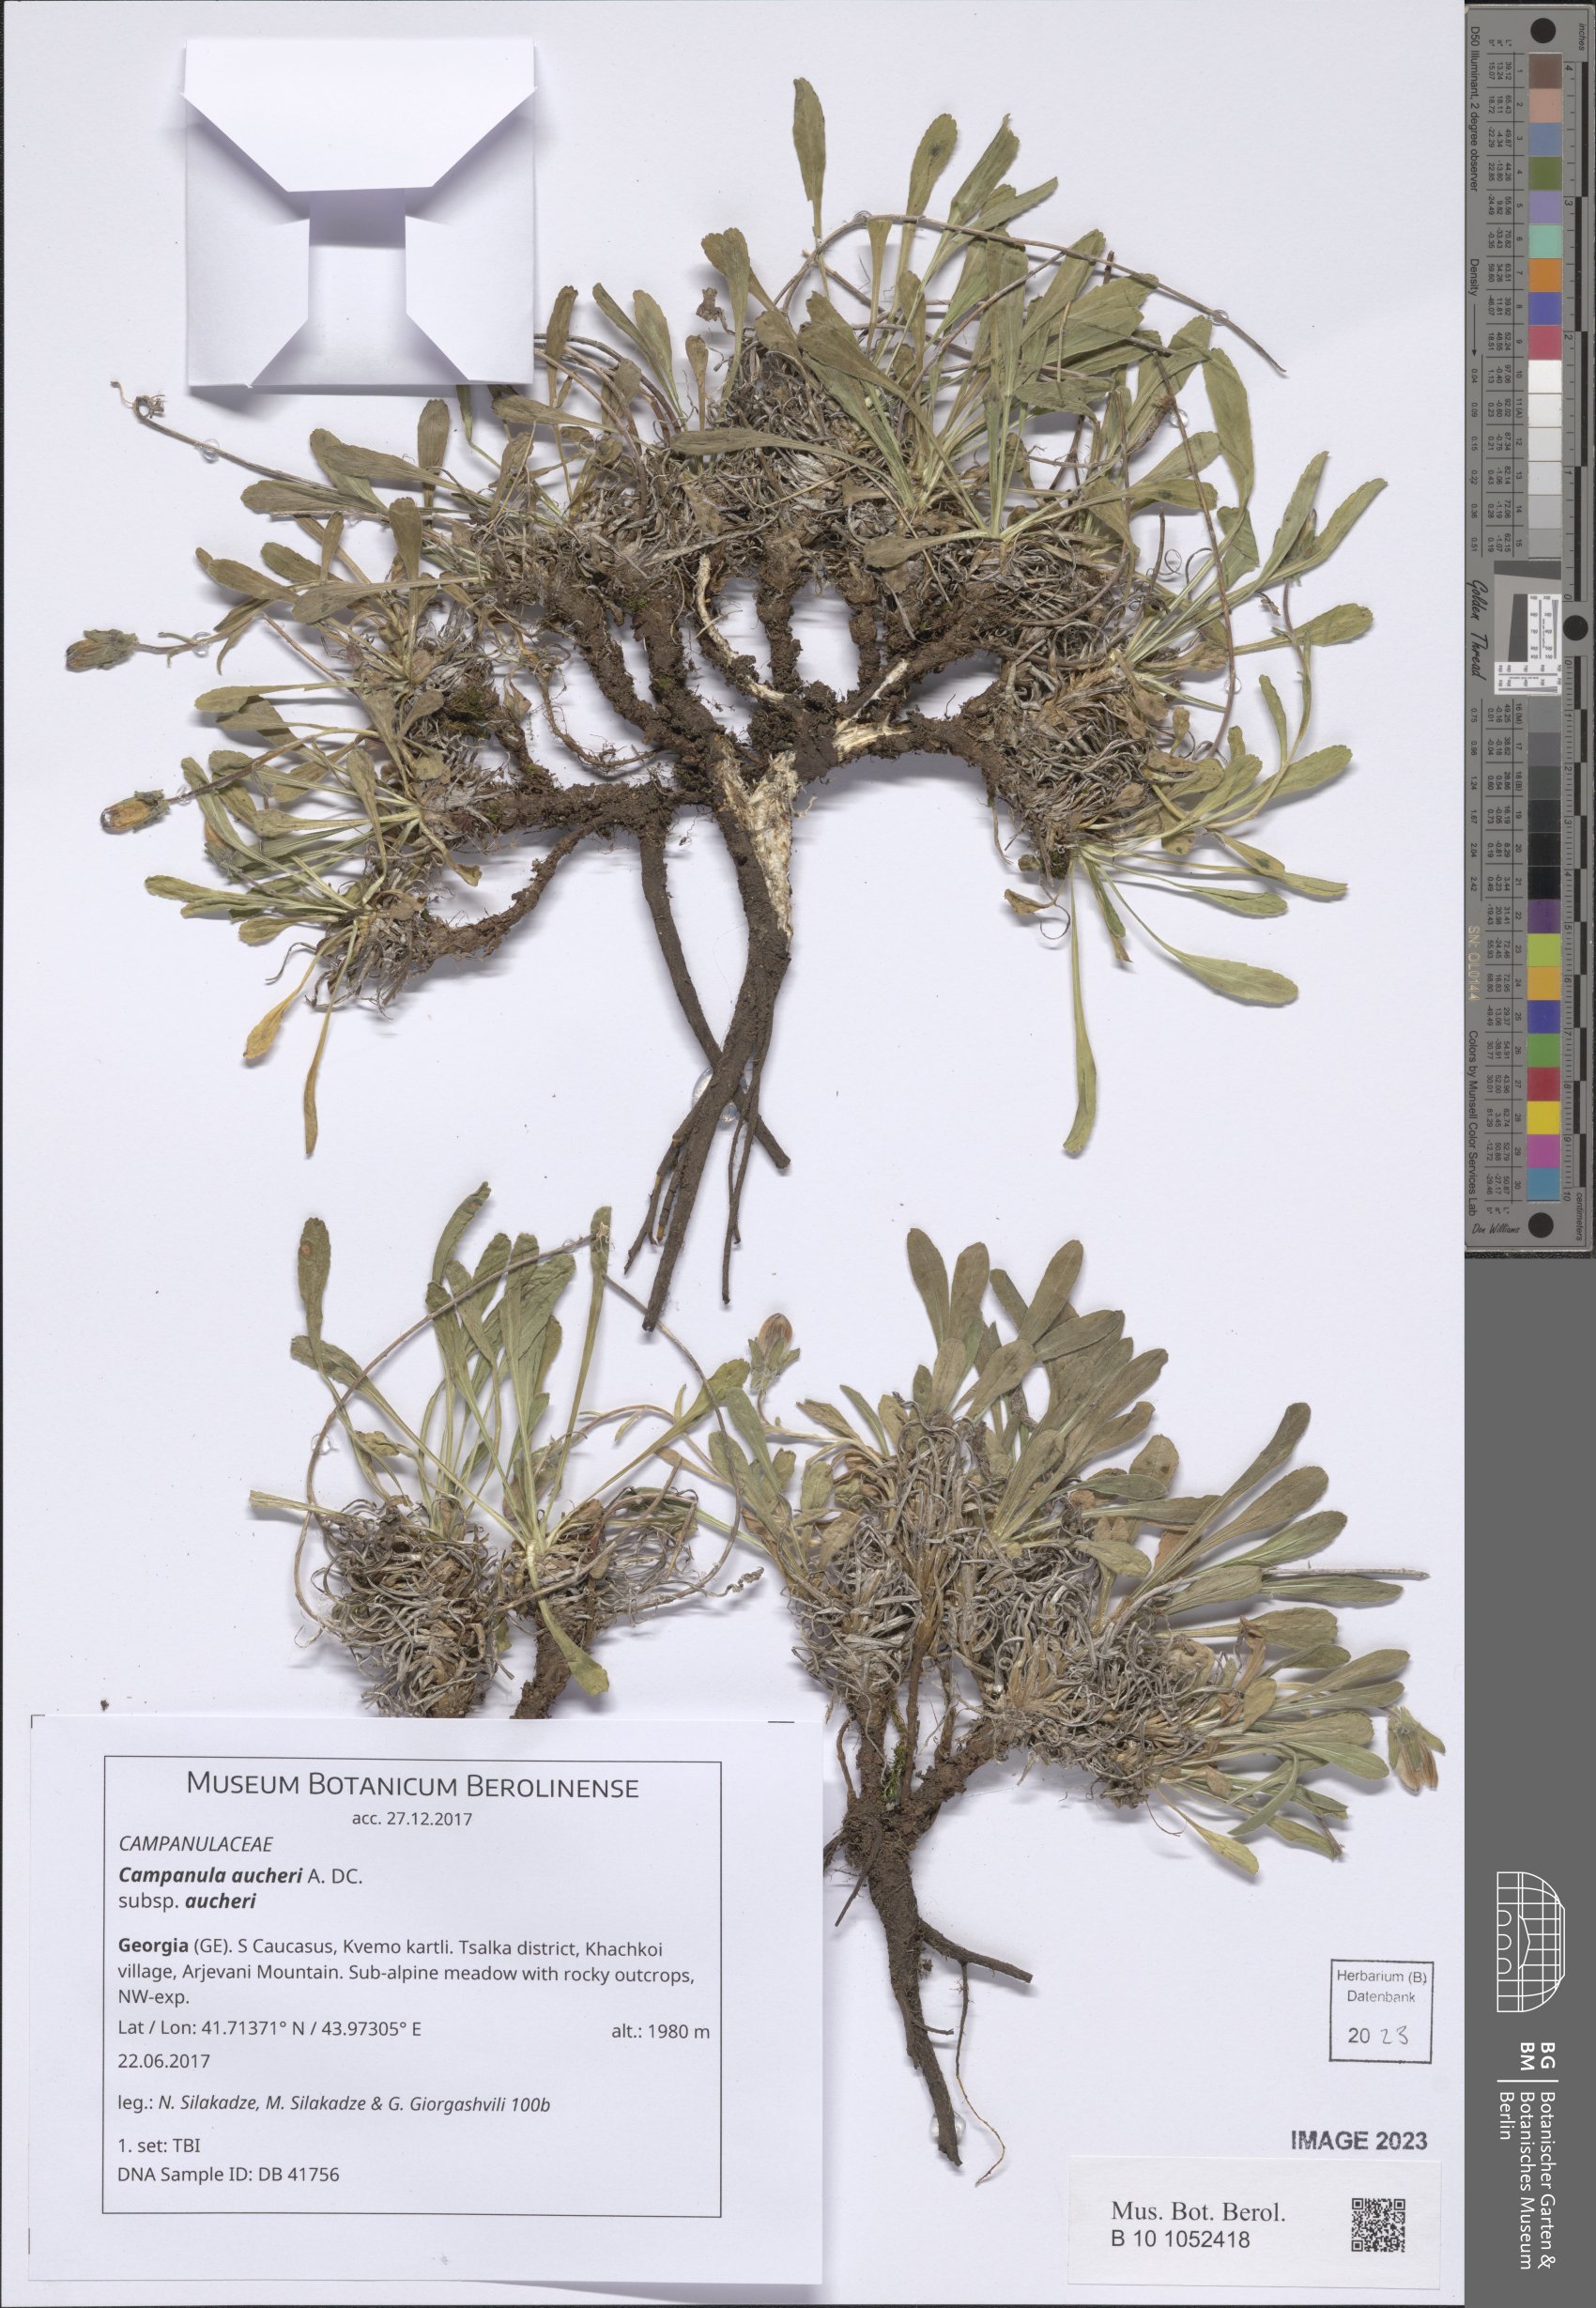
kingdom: Plantae
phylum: Tracheophyta
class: Magnoliopsida
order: Asterales
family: Campanulaceae
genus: Campanula
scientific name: Campanula saxifraga
